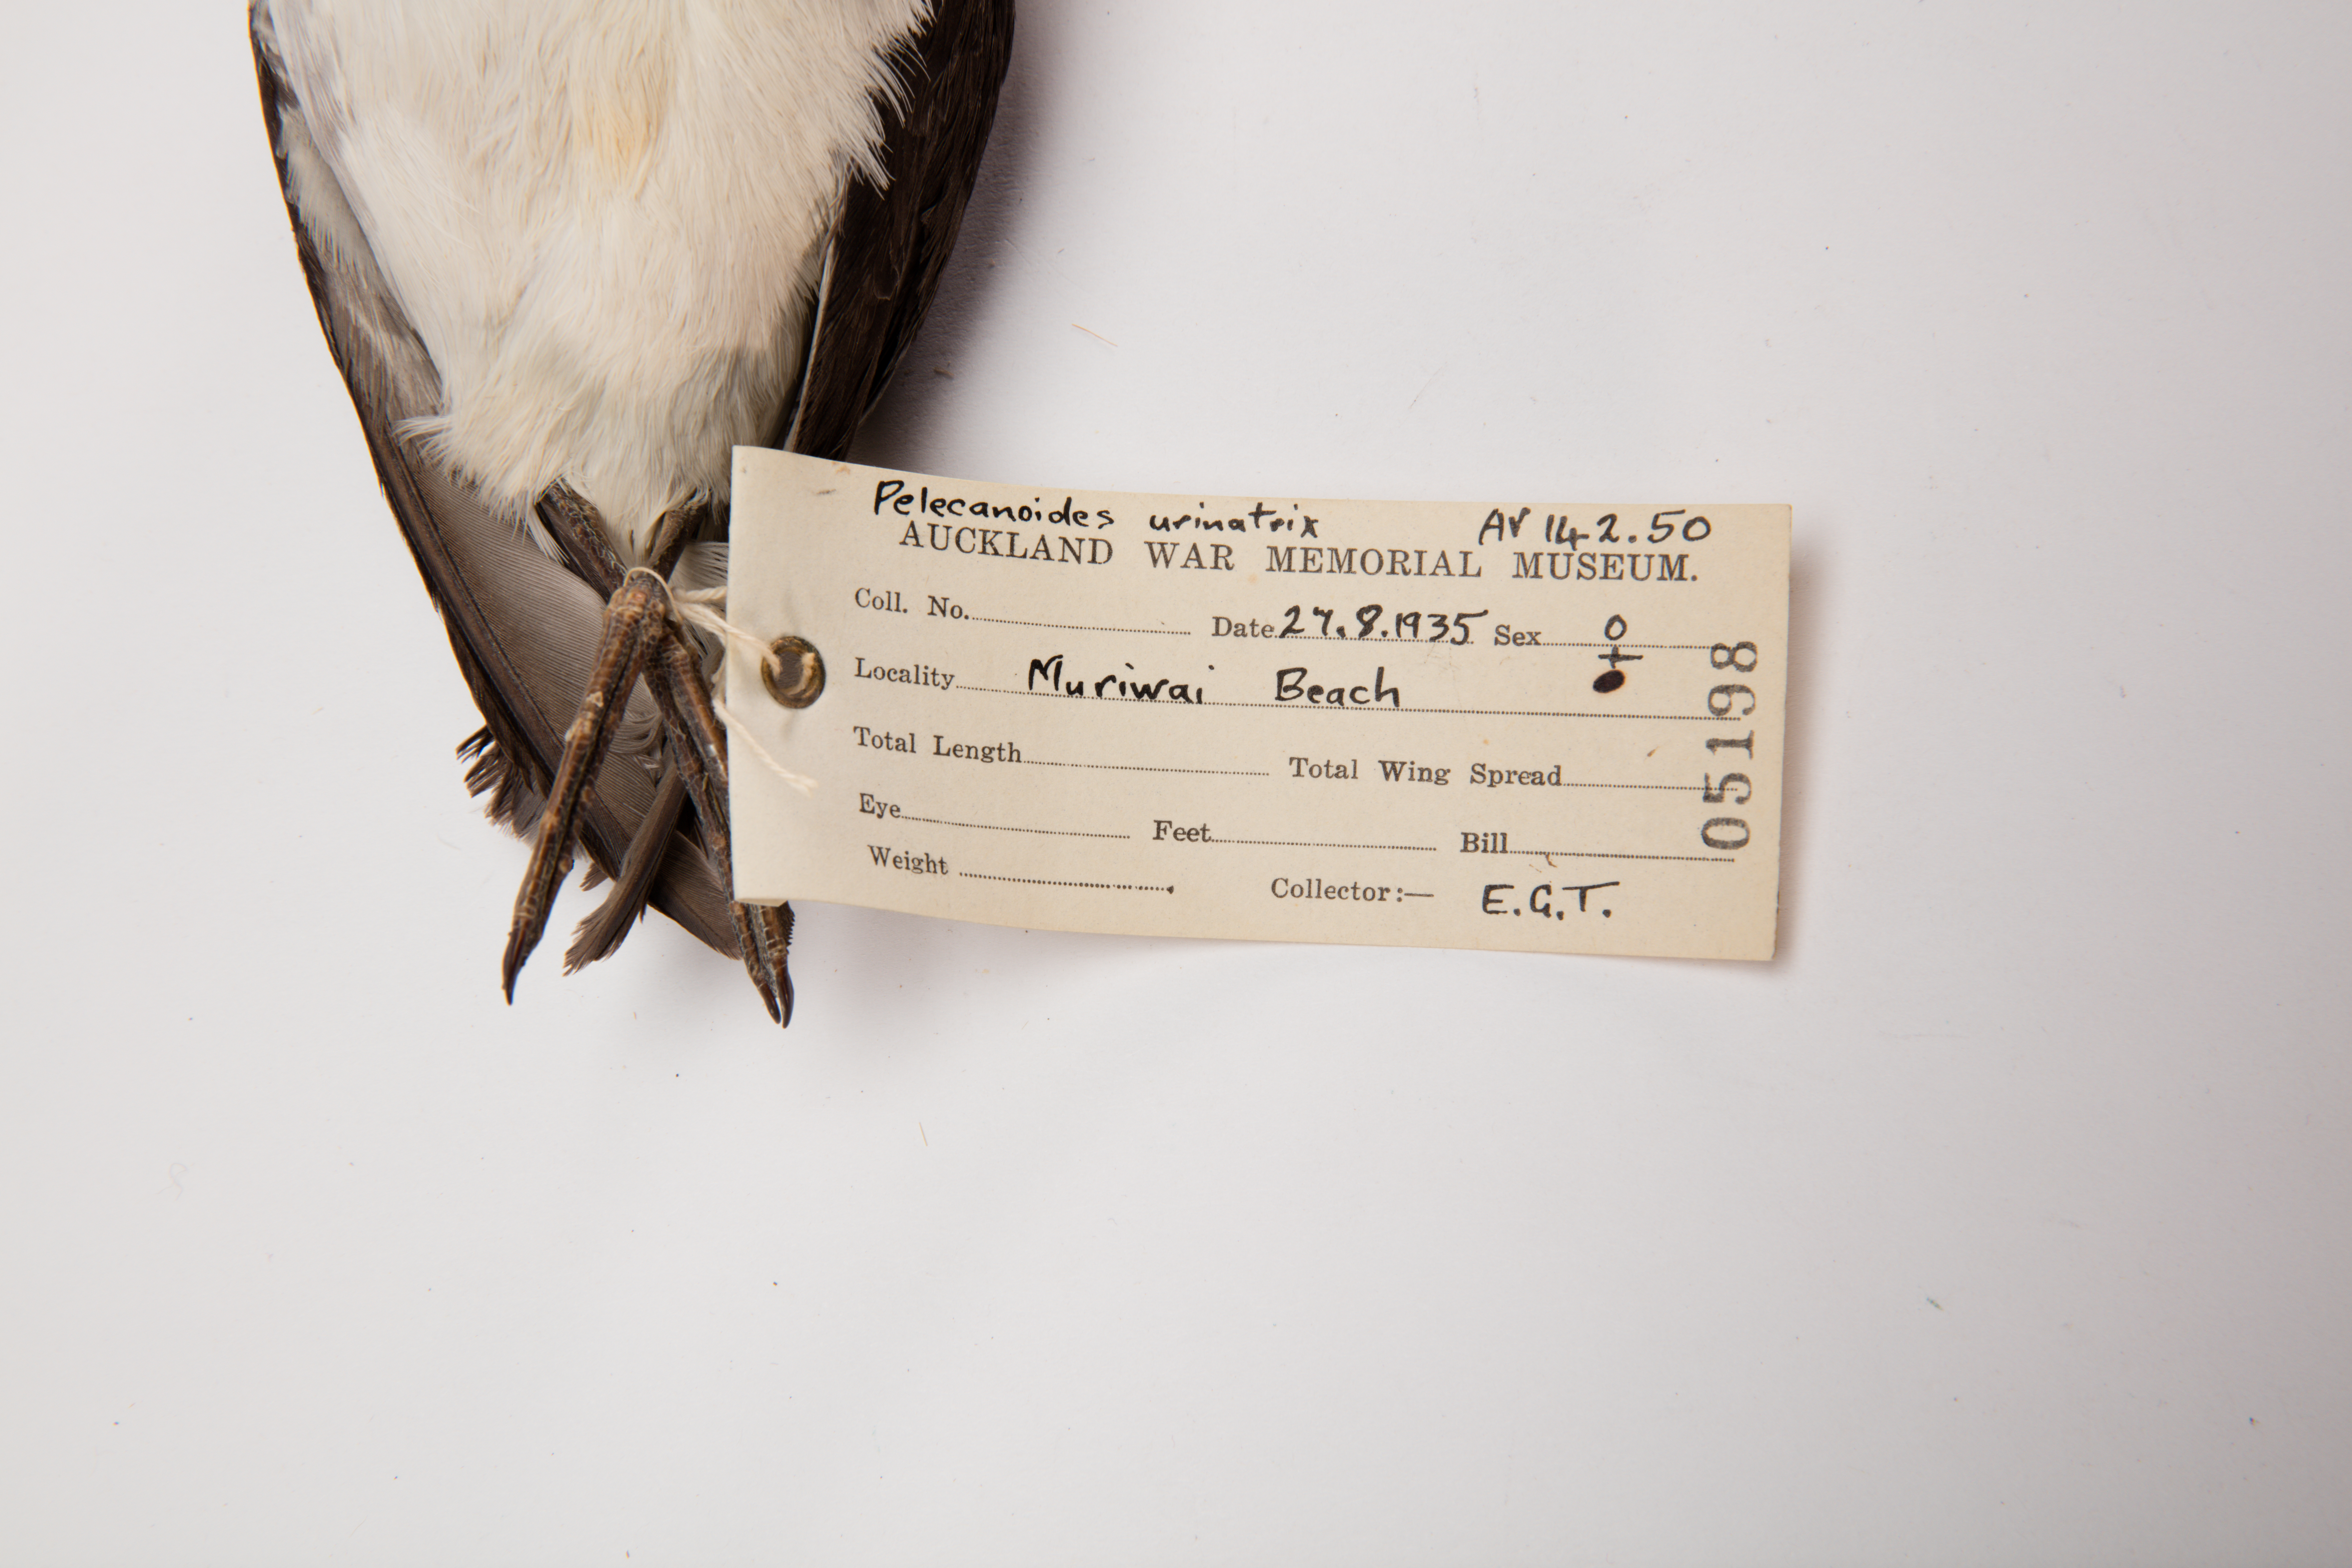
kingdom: Animalia
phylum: Chordata
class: Aves
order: Procellariiformes
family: Pelecanoididae
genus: Pelecanoides
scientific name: Pelecanoides urinatrix
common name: Common diving-petrel
